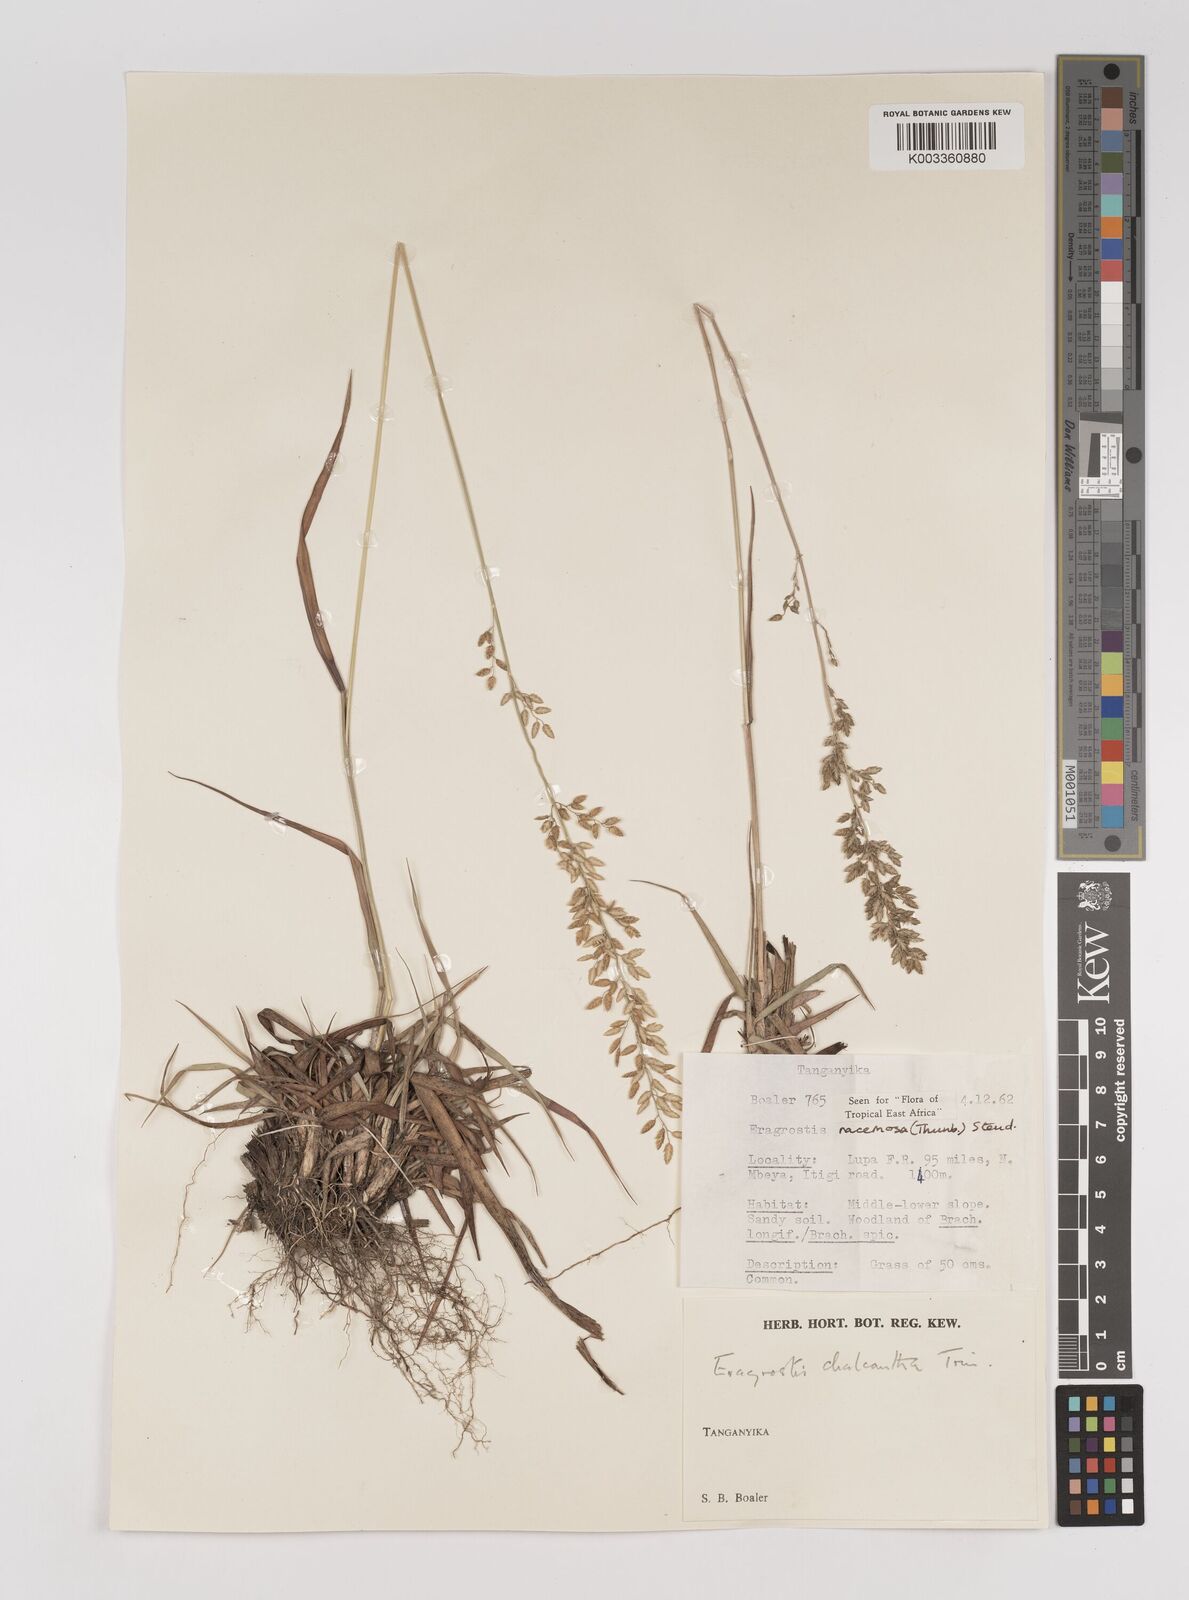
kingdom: Plantae
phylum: Tracheophyta
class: Liliopsida
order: Poales
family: Poaceae
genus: Eragrostis
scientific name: Eragrostis racemosa
